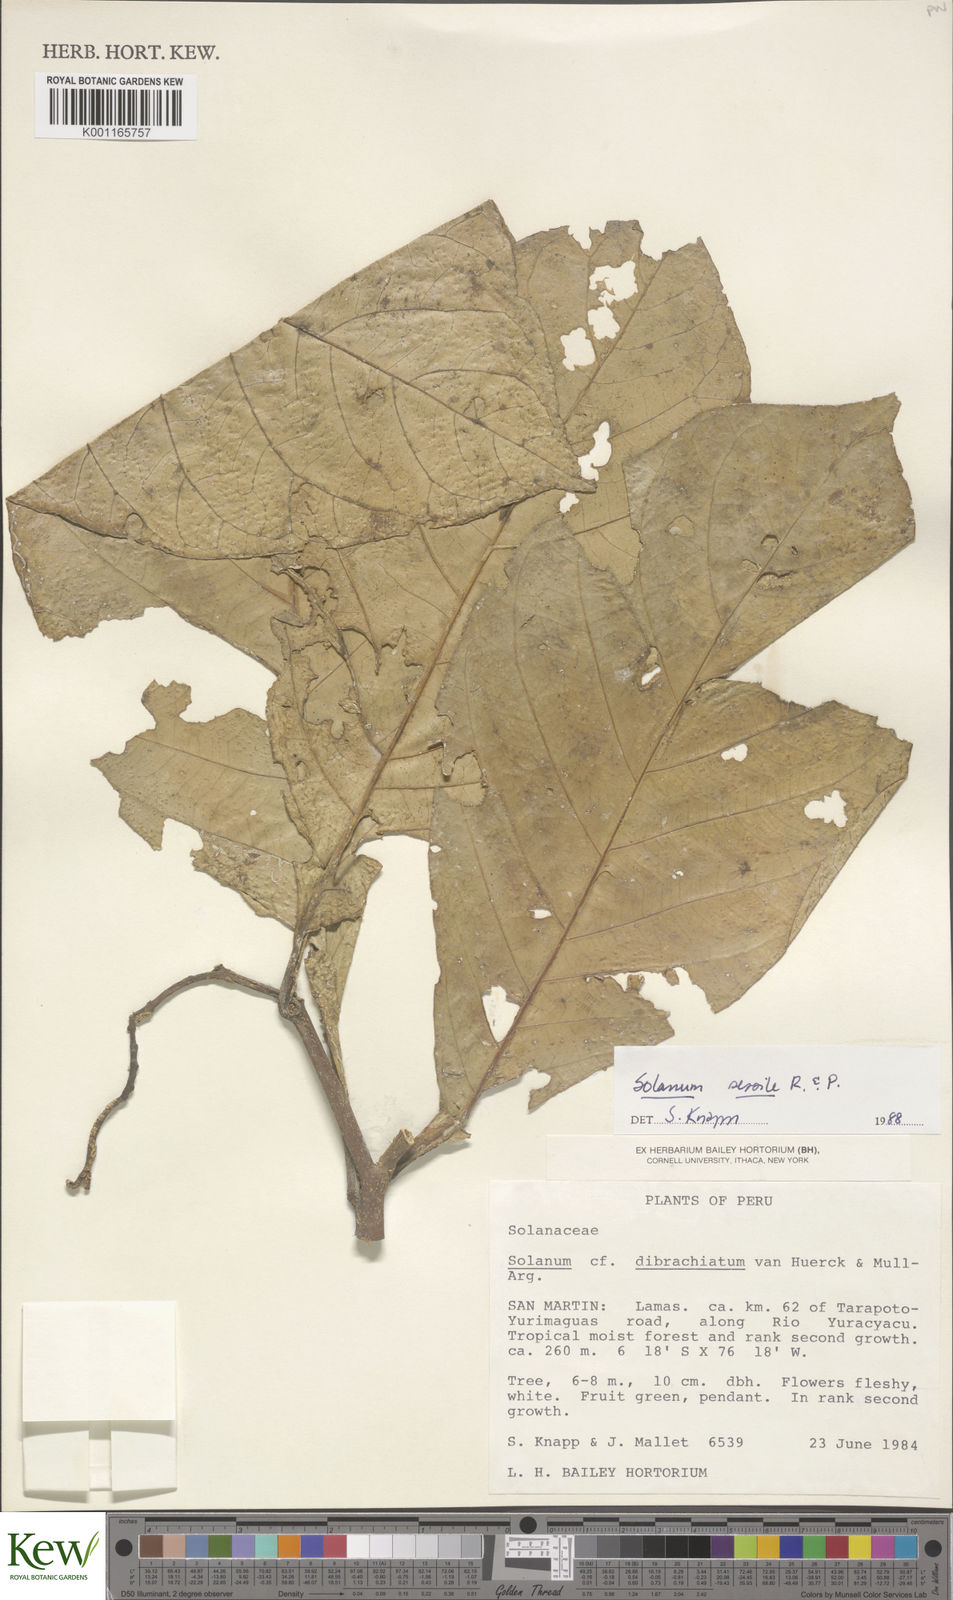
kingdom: Plantae
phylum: Tracheophyta
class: Magnoliopsida
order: Solanales
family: Solanaceae
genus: Solanum
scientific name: Solanum sessile
